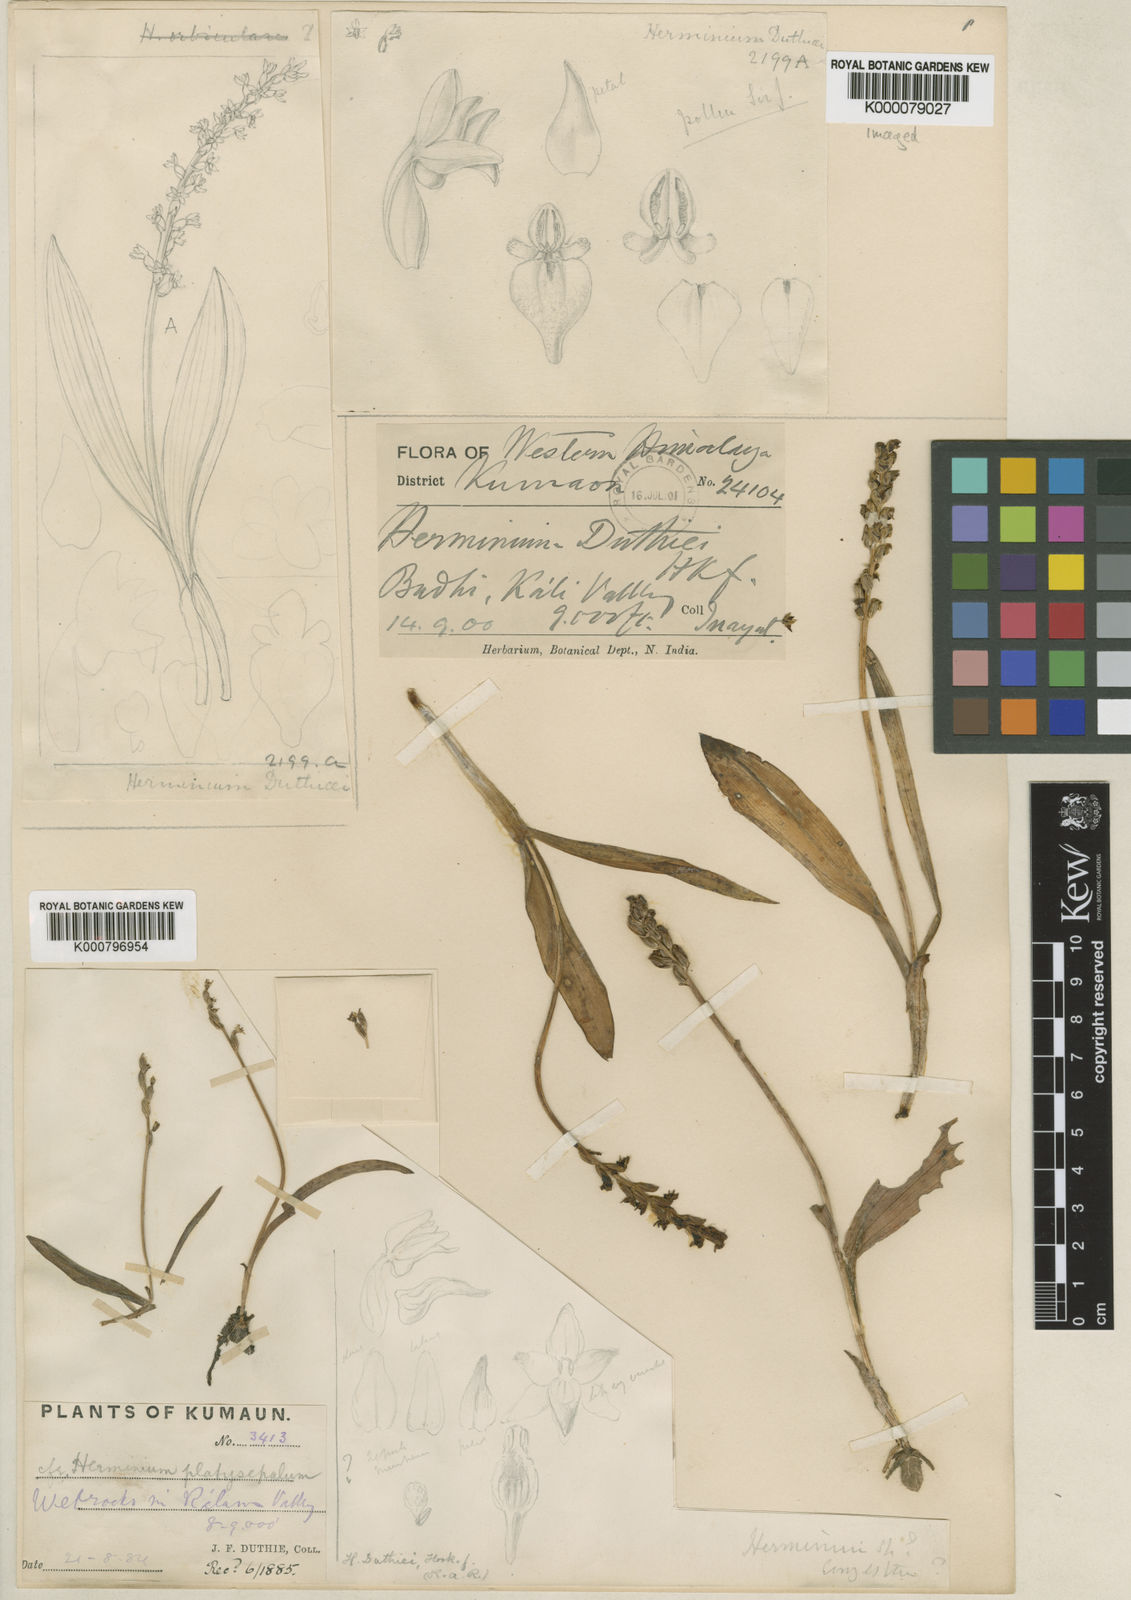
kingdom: Plantae
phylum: Tracheophyta
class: Liliopsida
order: Asparagales
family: Orchidaceae
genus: Herminium
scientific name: Herminium lanceum
